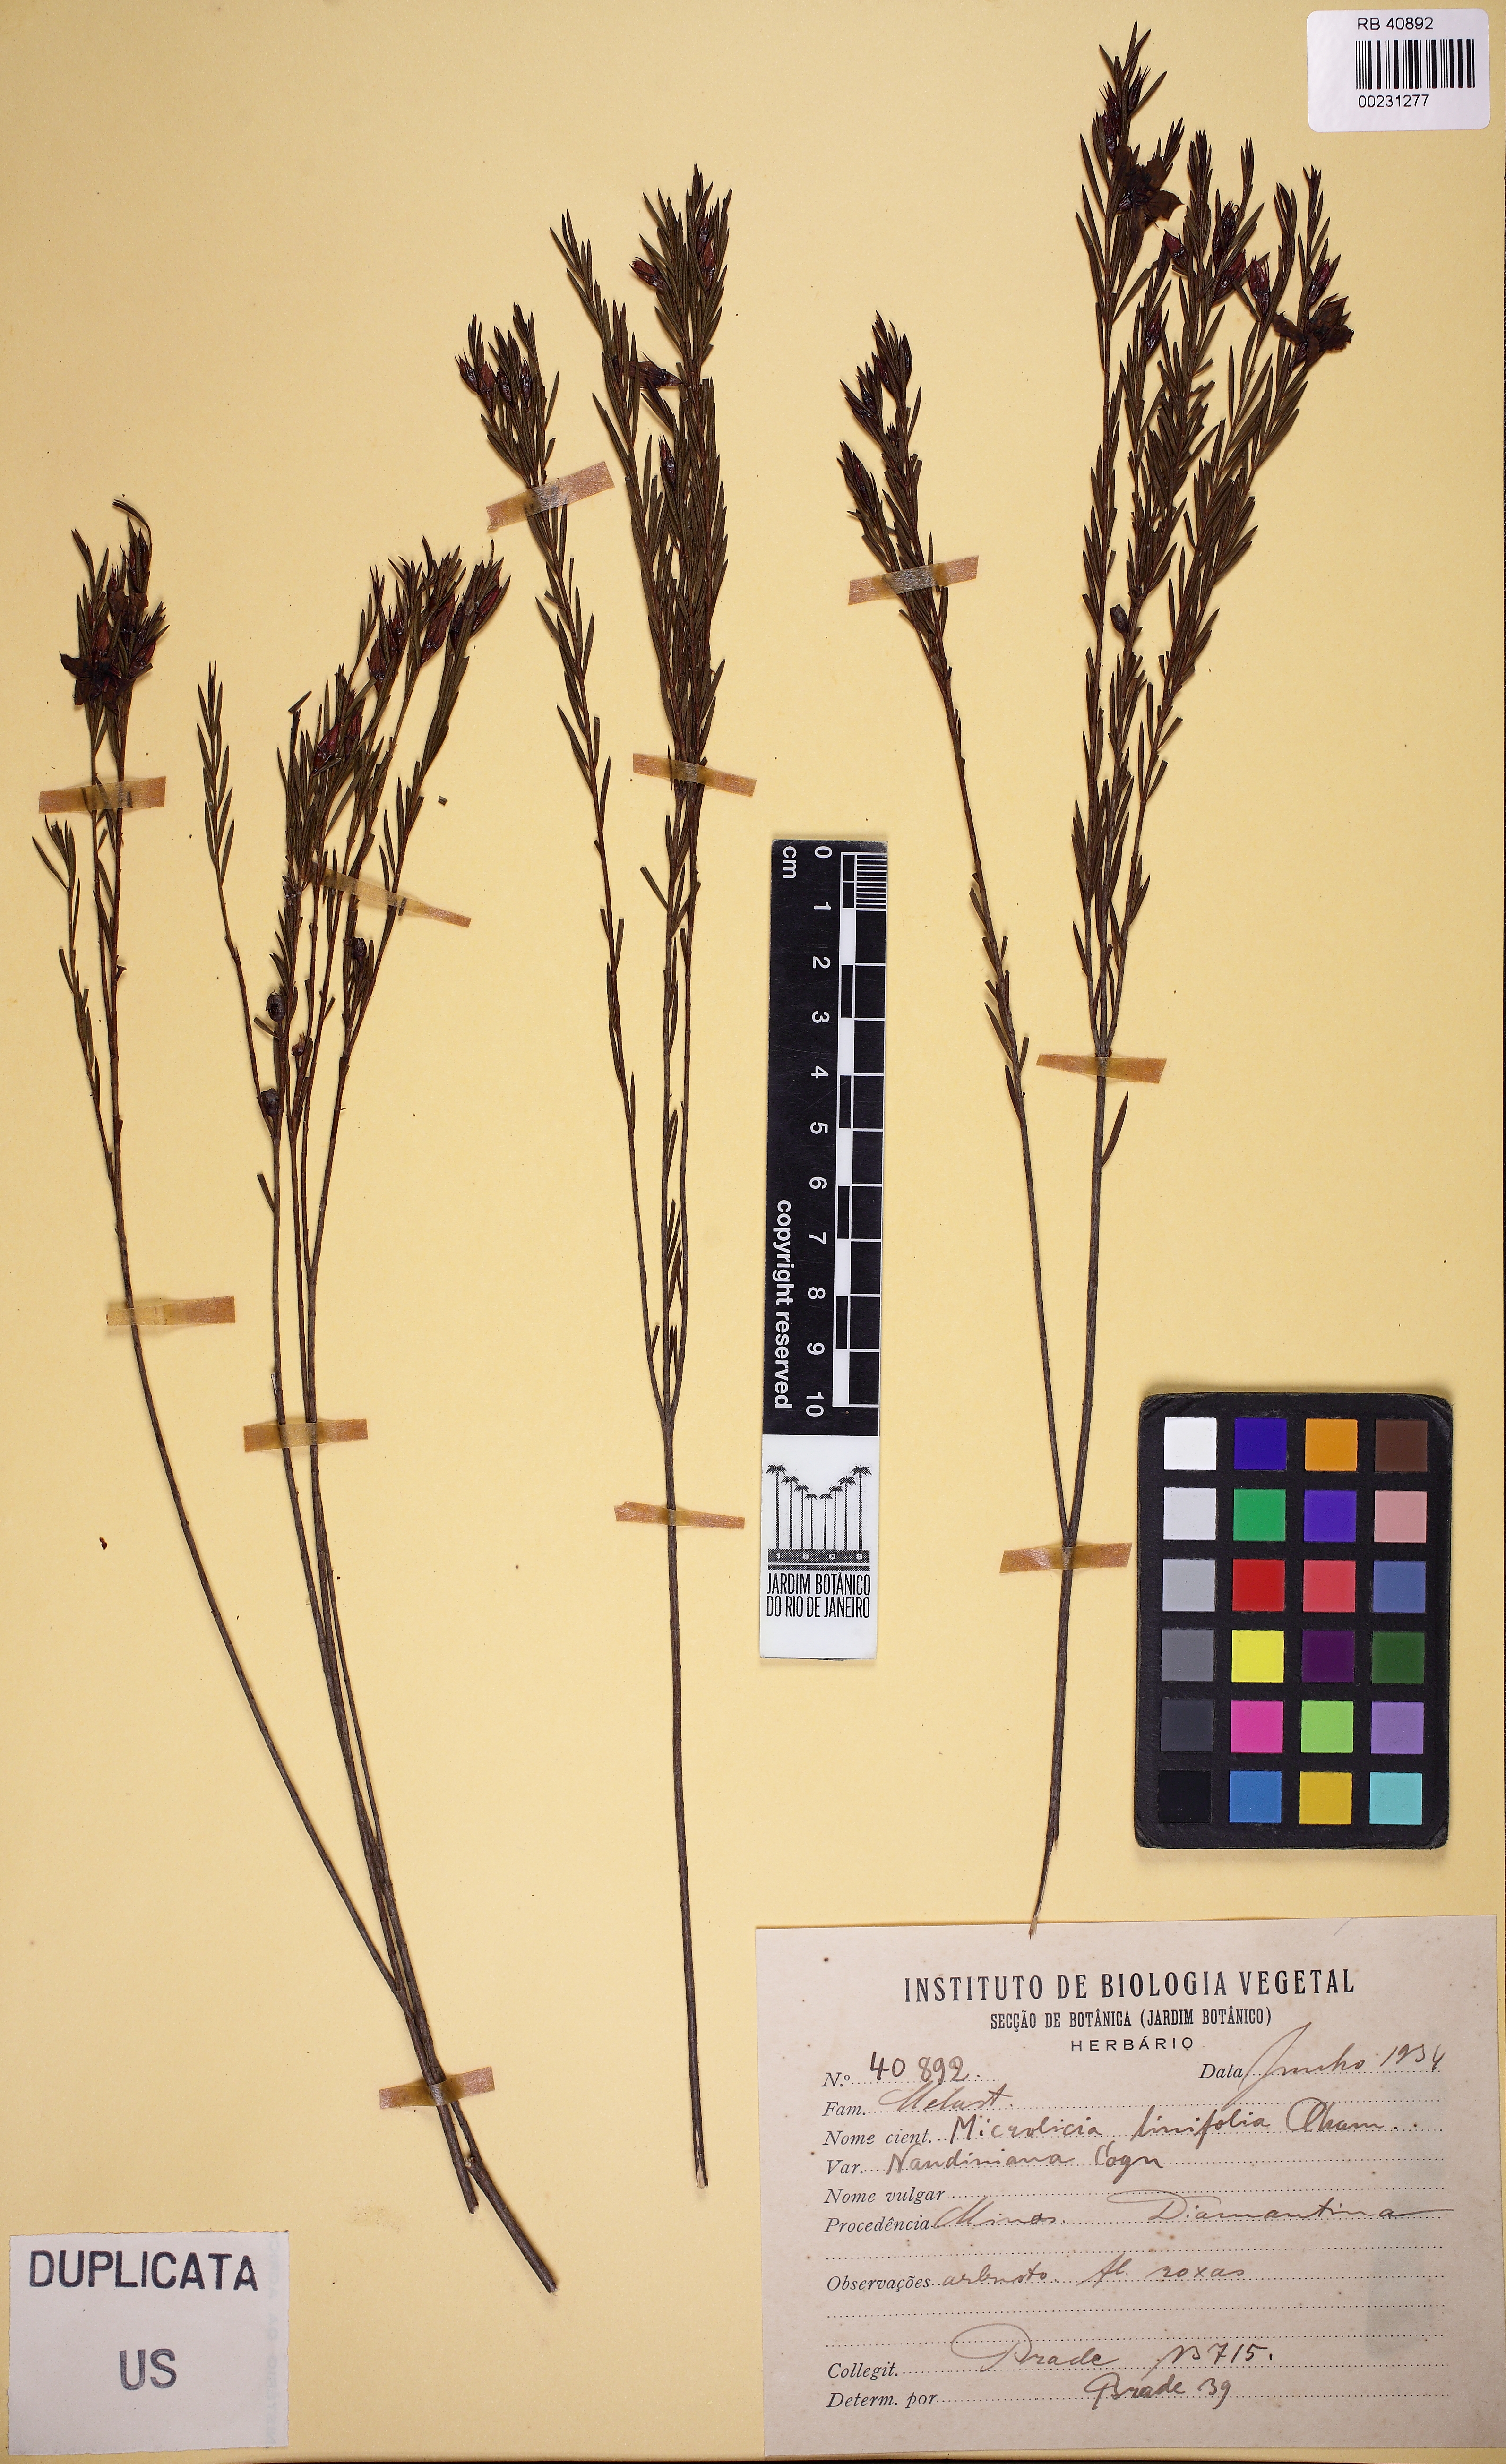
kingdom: Plantae
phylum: Tracheophyta
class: Magnoliopsida
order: Myrtales
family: Melastomataceae
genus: Microlicia
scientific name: Microlicia linifolia
